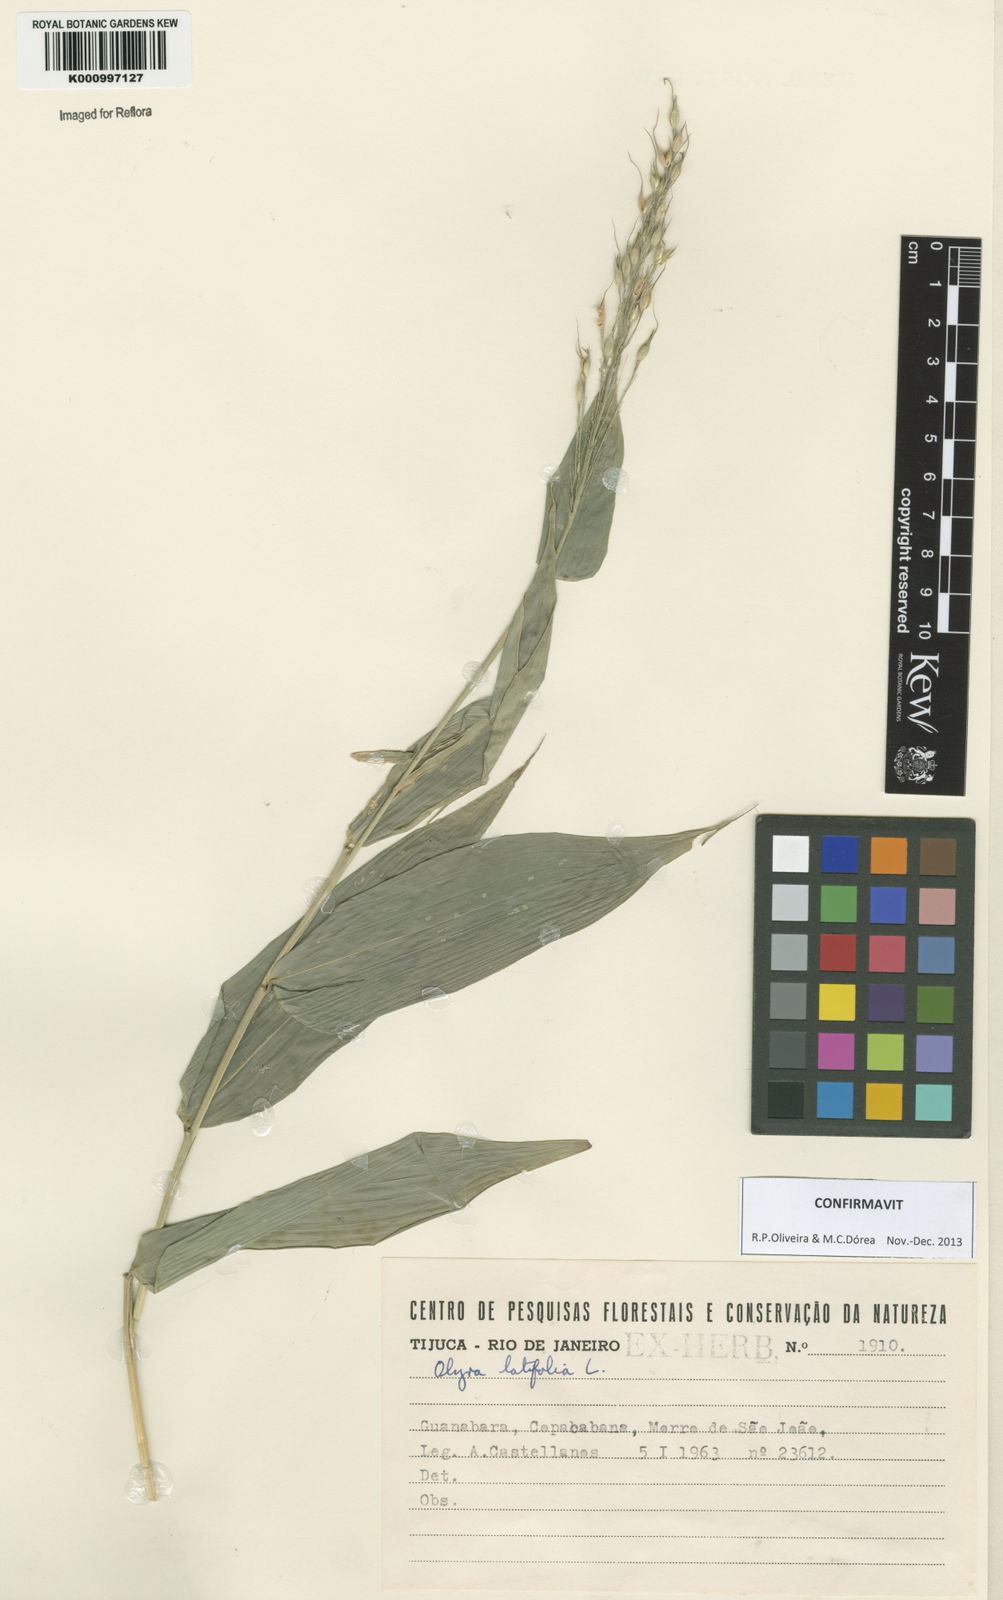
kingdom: Plantae
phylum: Tracheophyta
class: Liliopsida
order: Poales
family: Poaceae
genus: Olyra
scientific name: Olyra latifolia
